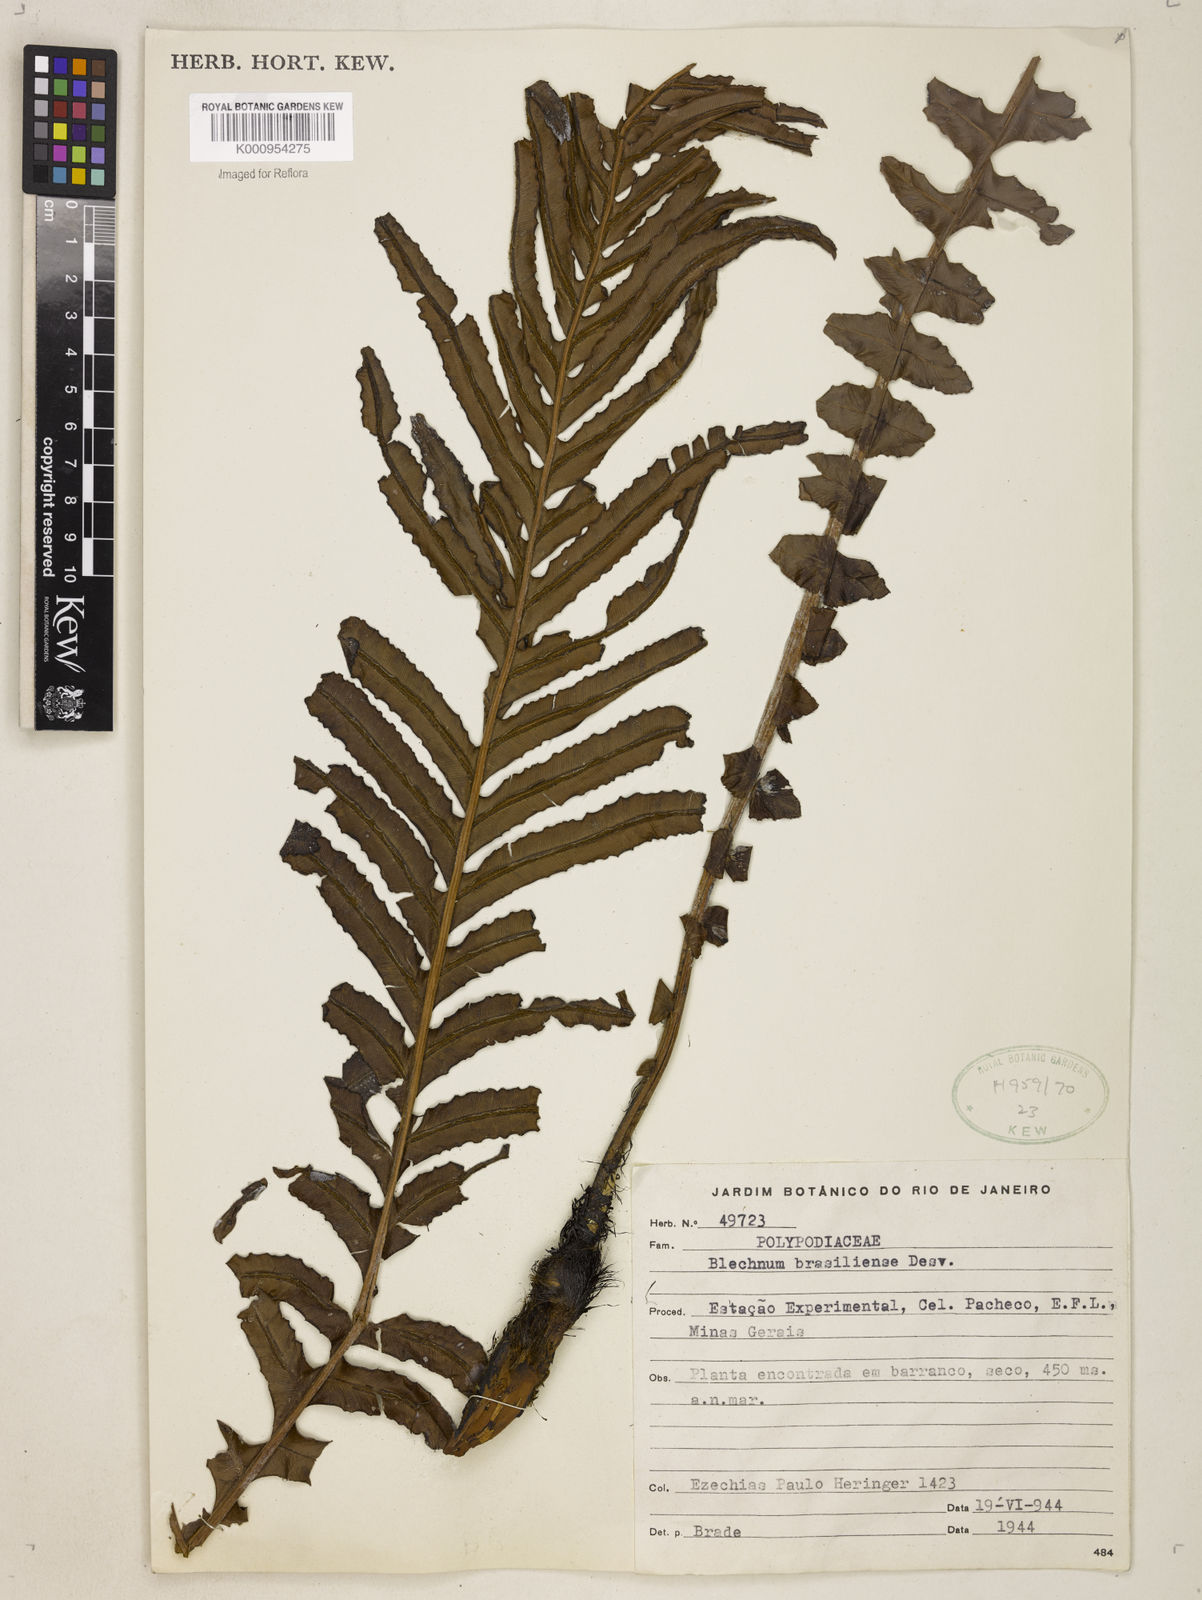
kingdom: Plantae
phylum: Tracheophyta
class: Polypodiopsida
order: Polypodiales
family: Blechnaceae
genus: Neoblechnum
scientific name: Neoblechnum brasiliense
